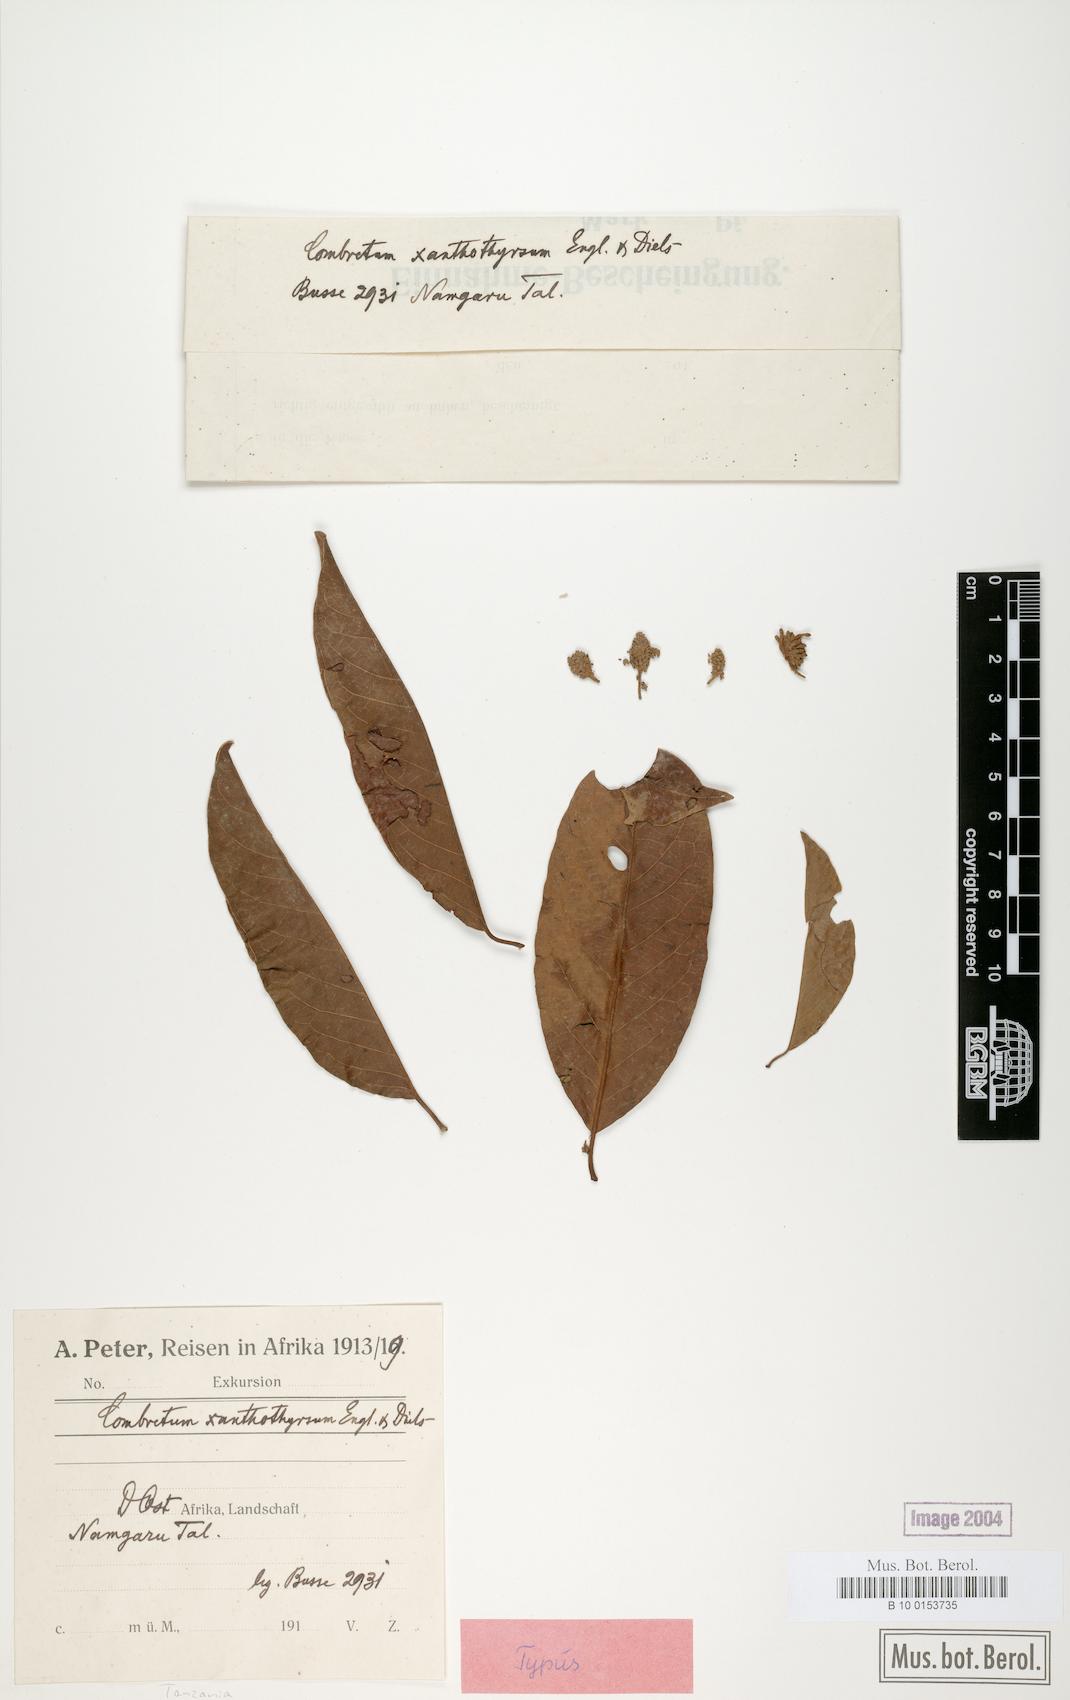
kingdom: Plantae
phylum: Tracheophyta
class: Magnoliopsida
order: Myrtales
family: Combretaceae
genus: Combretum
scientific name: Combretum xanthothyrsum
